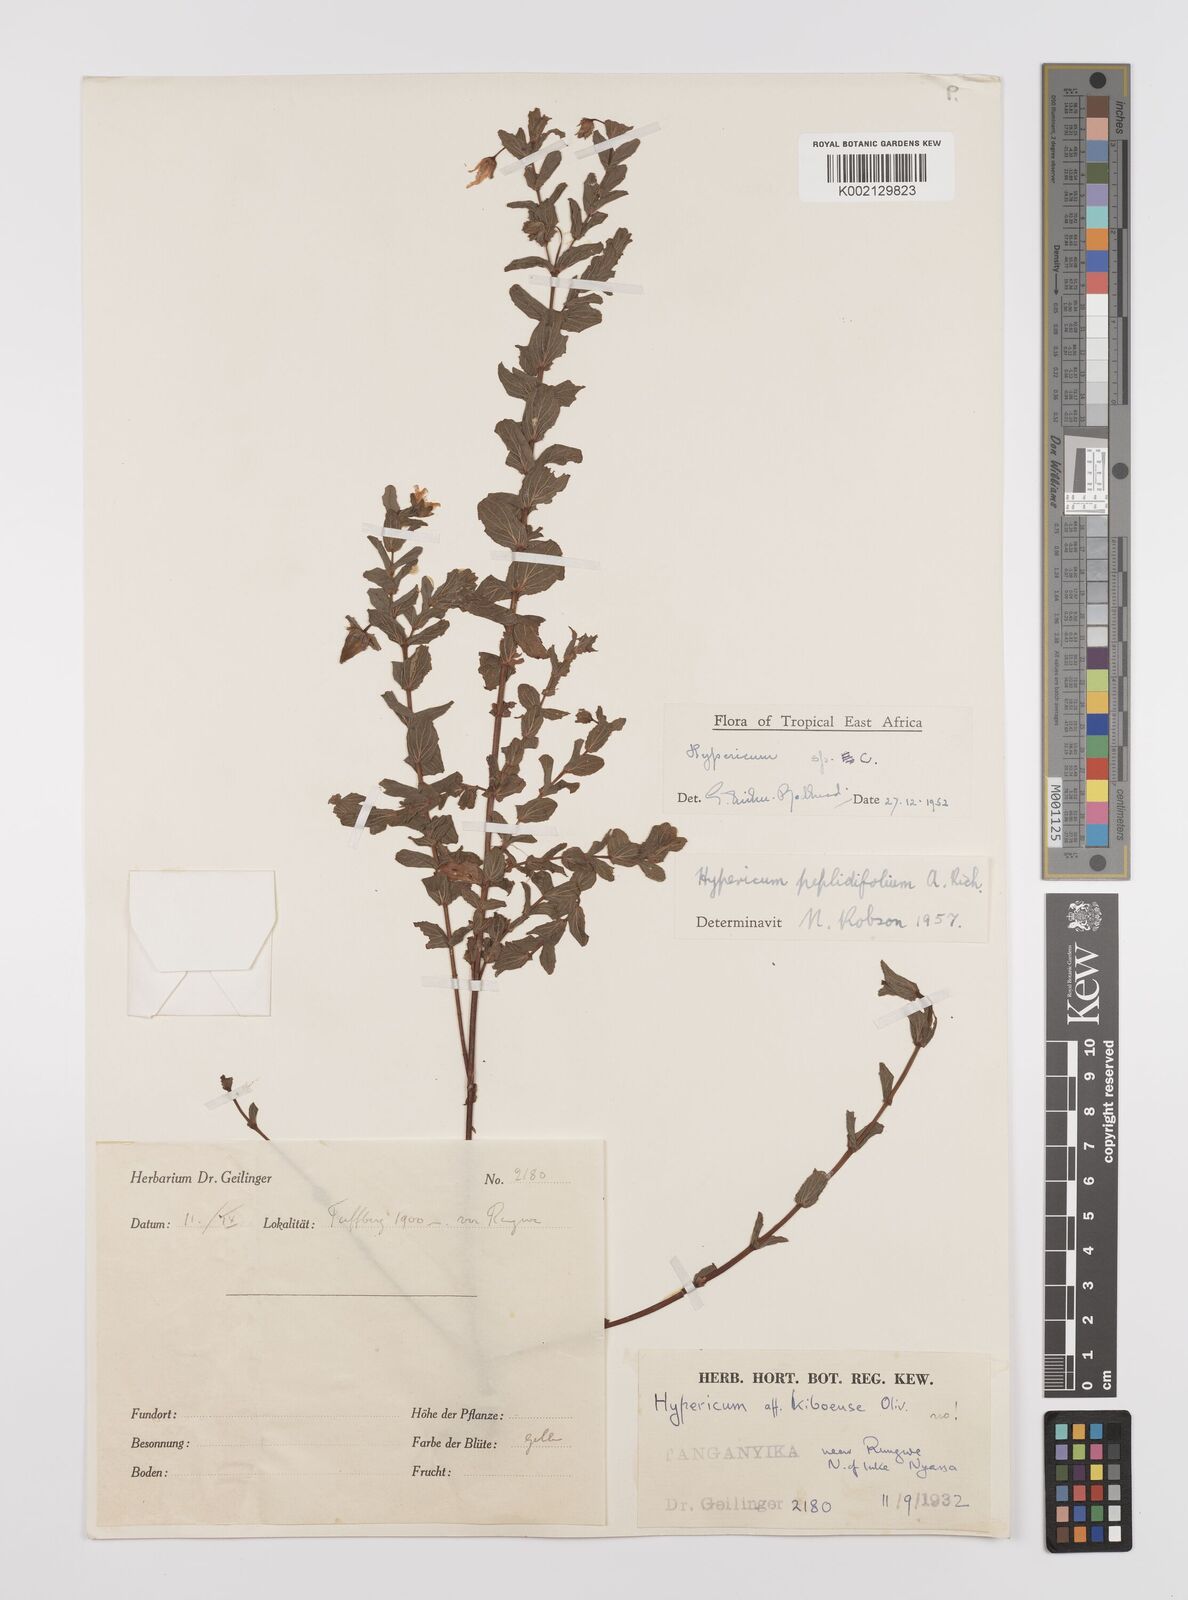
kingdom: Plantae
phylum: Tracheophyta
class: Magnoliopsida
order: Malpighiales
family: Hypericaceae
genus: Hypericum
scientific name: Hypericum peplidifolium
